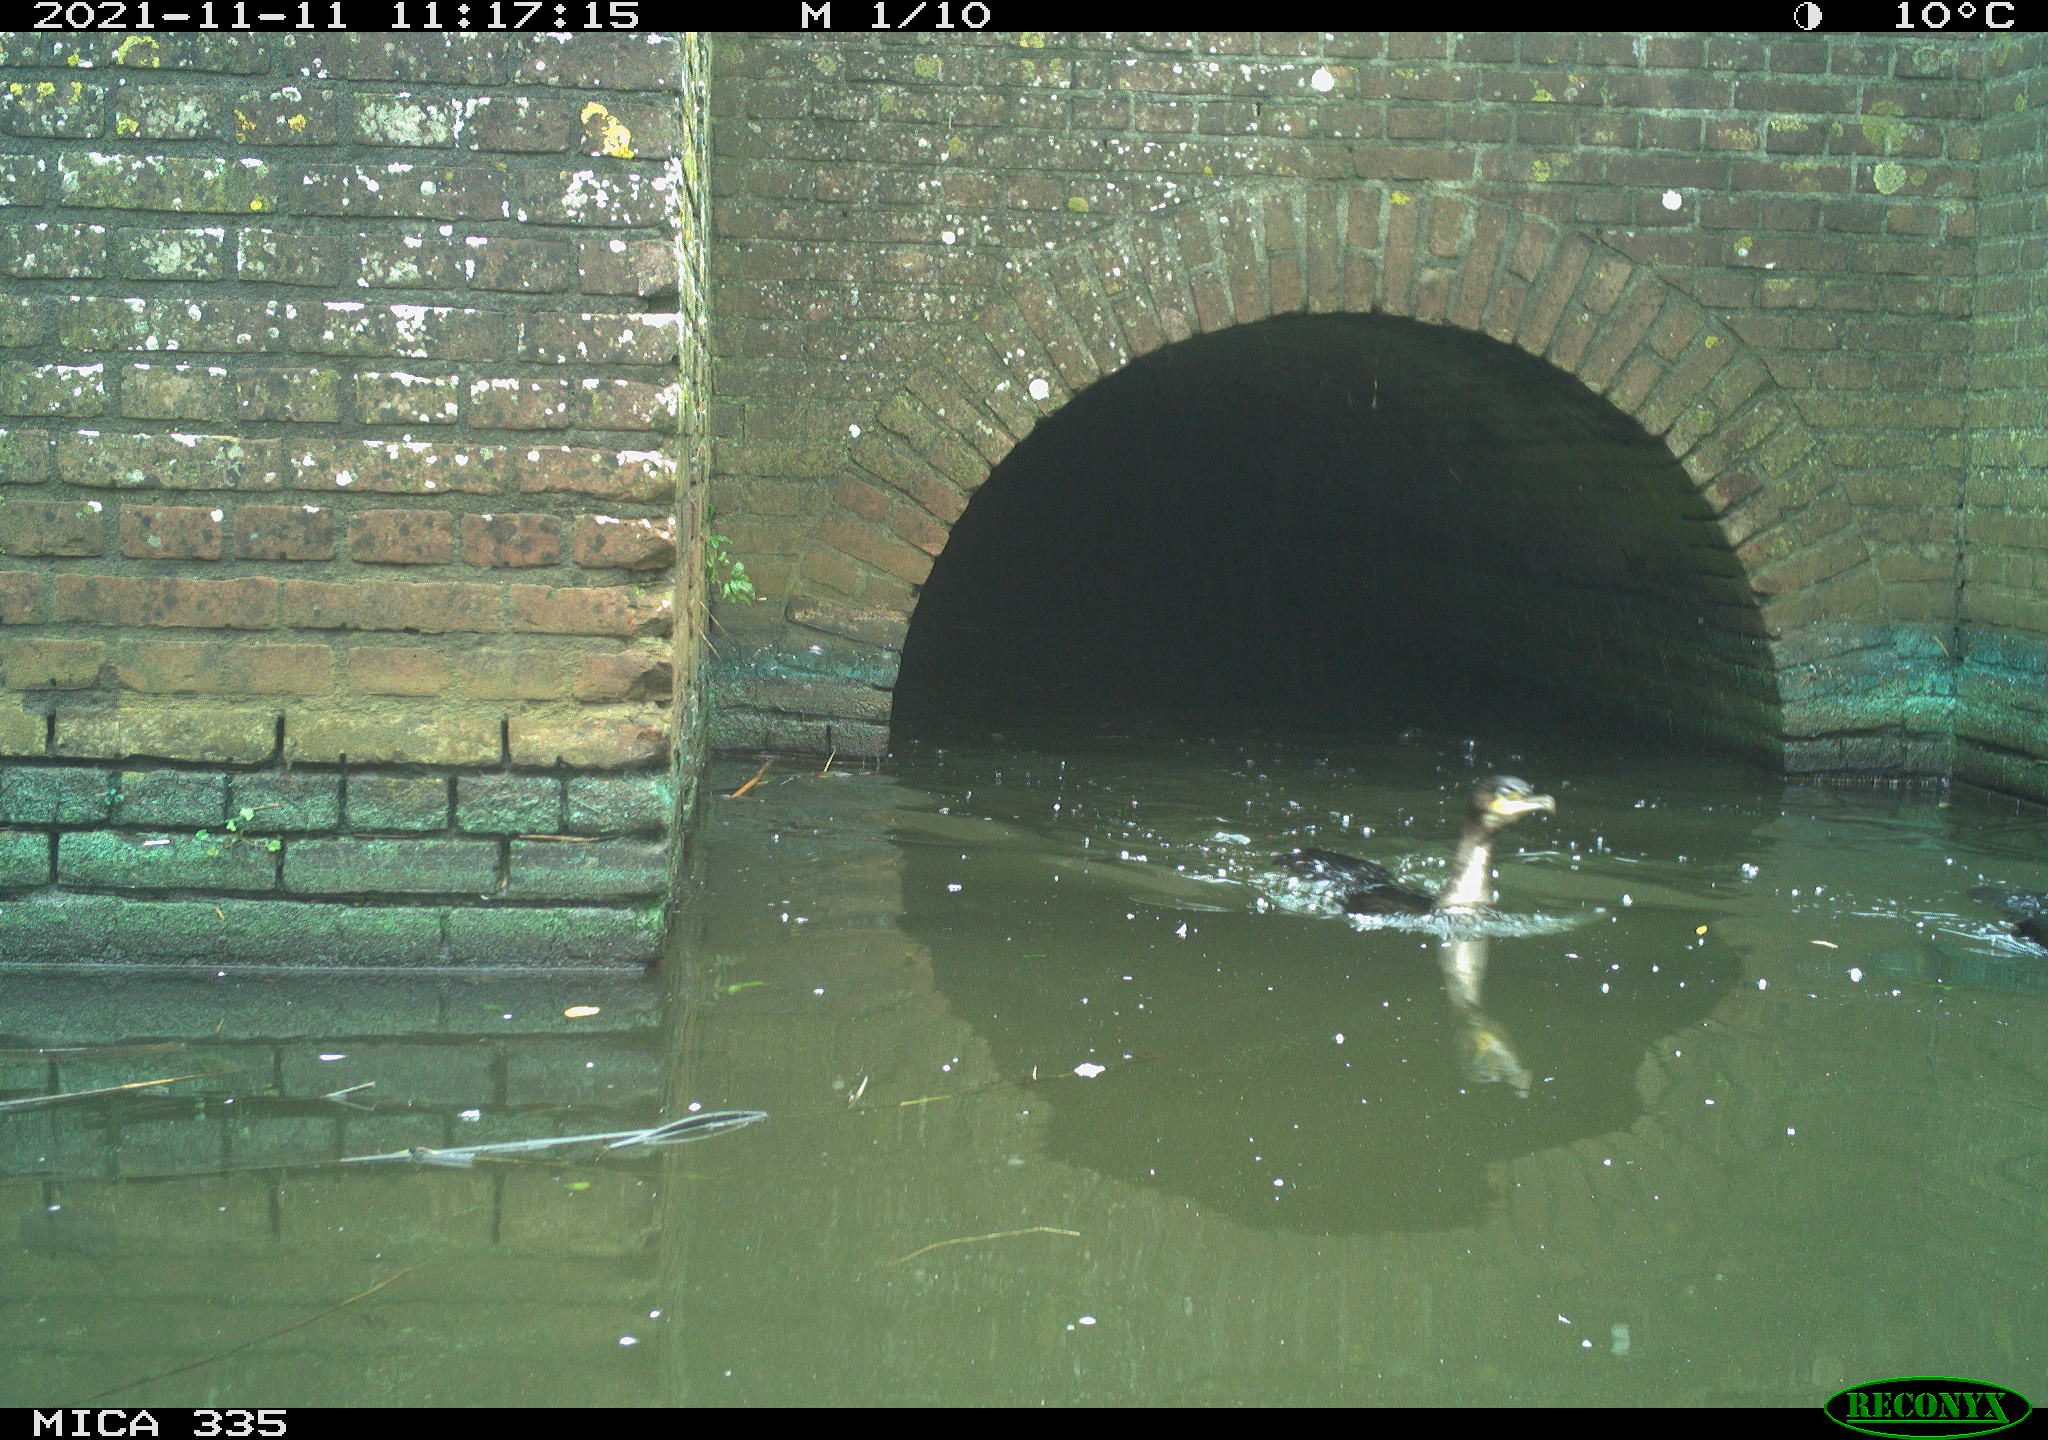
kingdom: Animalia
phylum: Chordata
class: Aves
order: Suliformes
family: Phalacrocoracidae
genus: Phalacrocorax
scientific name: Phalacrocorax carbo
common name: Great cormorant
